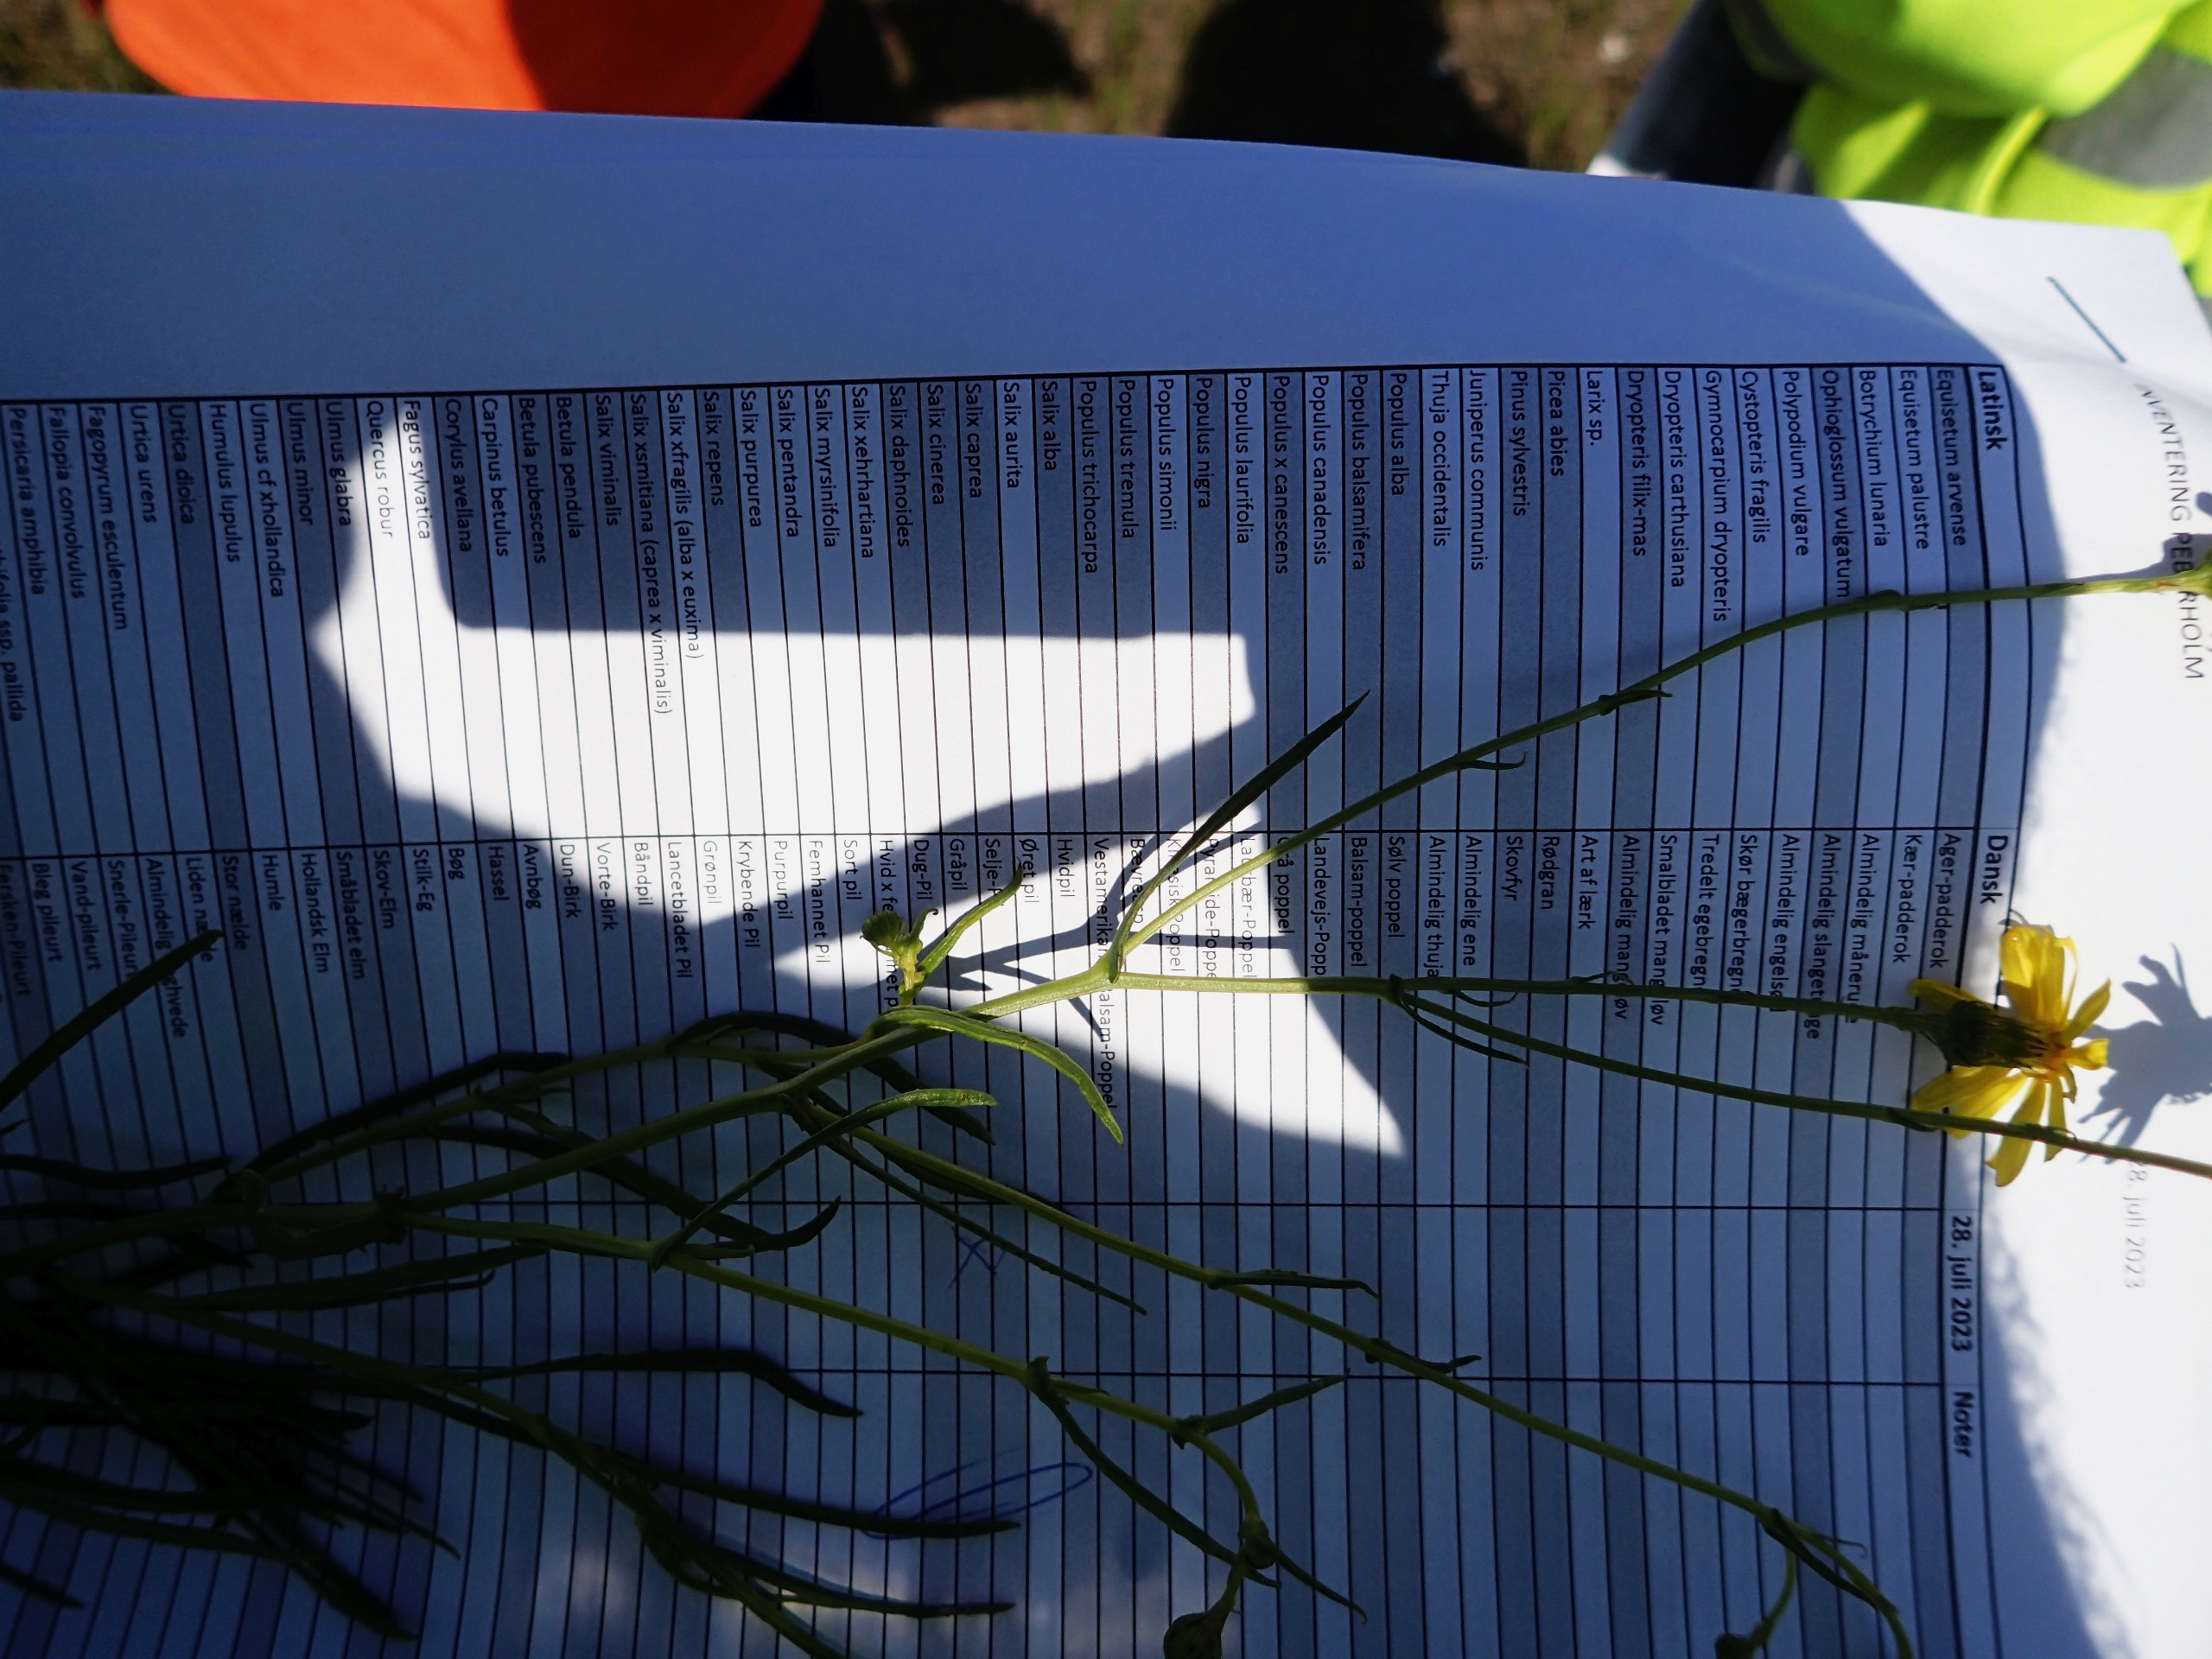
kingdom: Plantae
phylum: Tracheophyta
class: Magnoliopsida
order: Asterales
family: Asteraceae
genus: Senecio
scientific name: Senecio inaequidens
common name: Smalbladet brandbæger
